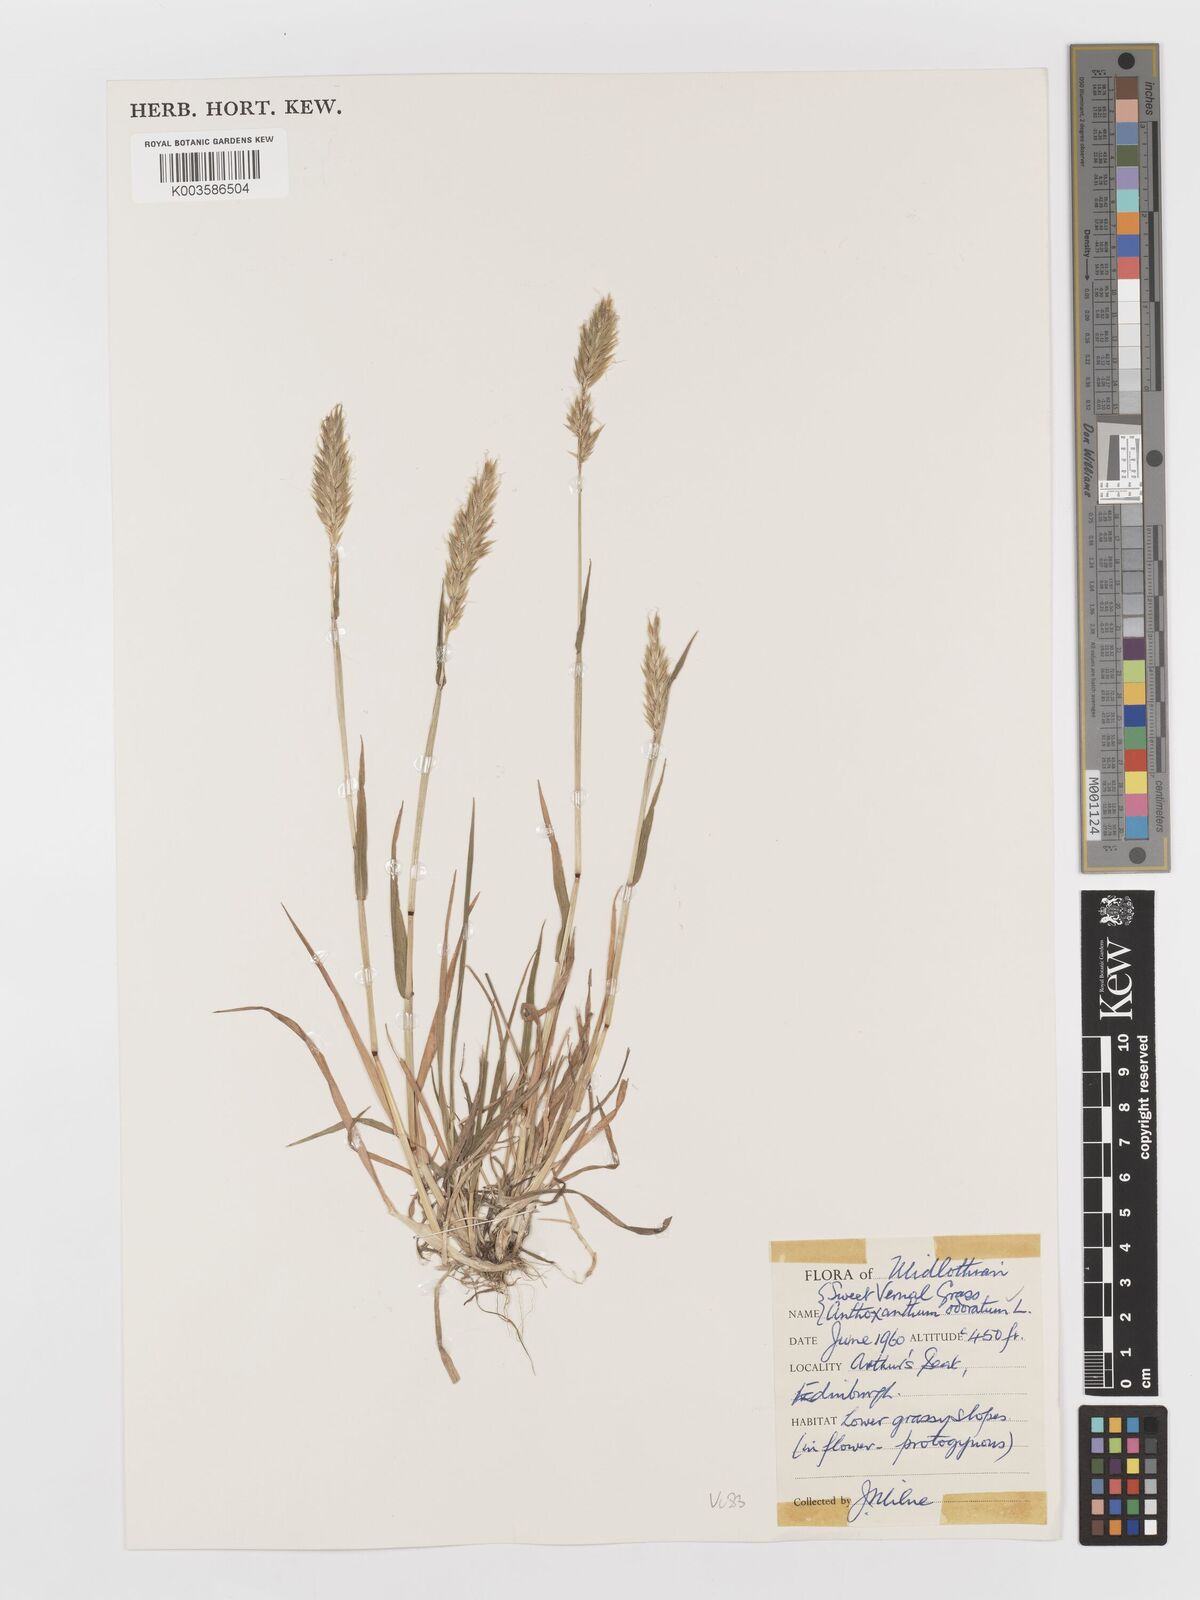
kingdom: Plantae
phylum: Tracheophyta
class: Liliopsida
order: Poales
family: Poaceae
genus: Anthoxanthum
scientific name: Anthoxanthum odoratum
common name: Sweet vernalgrass
